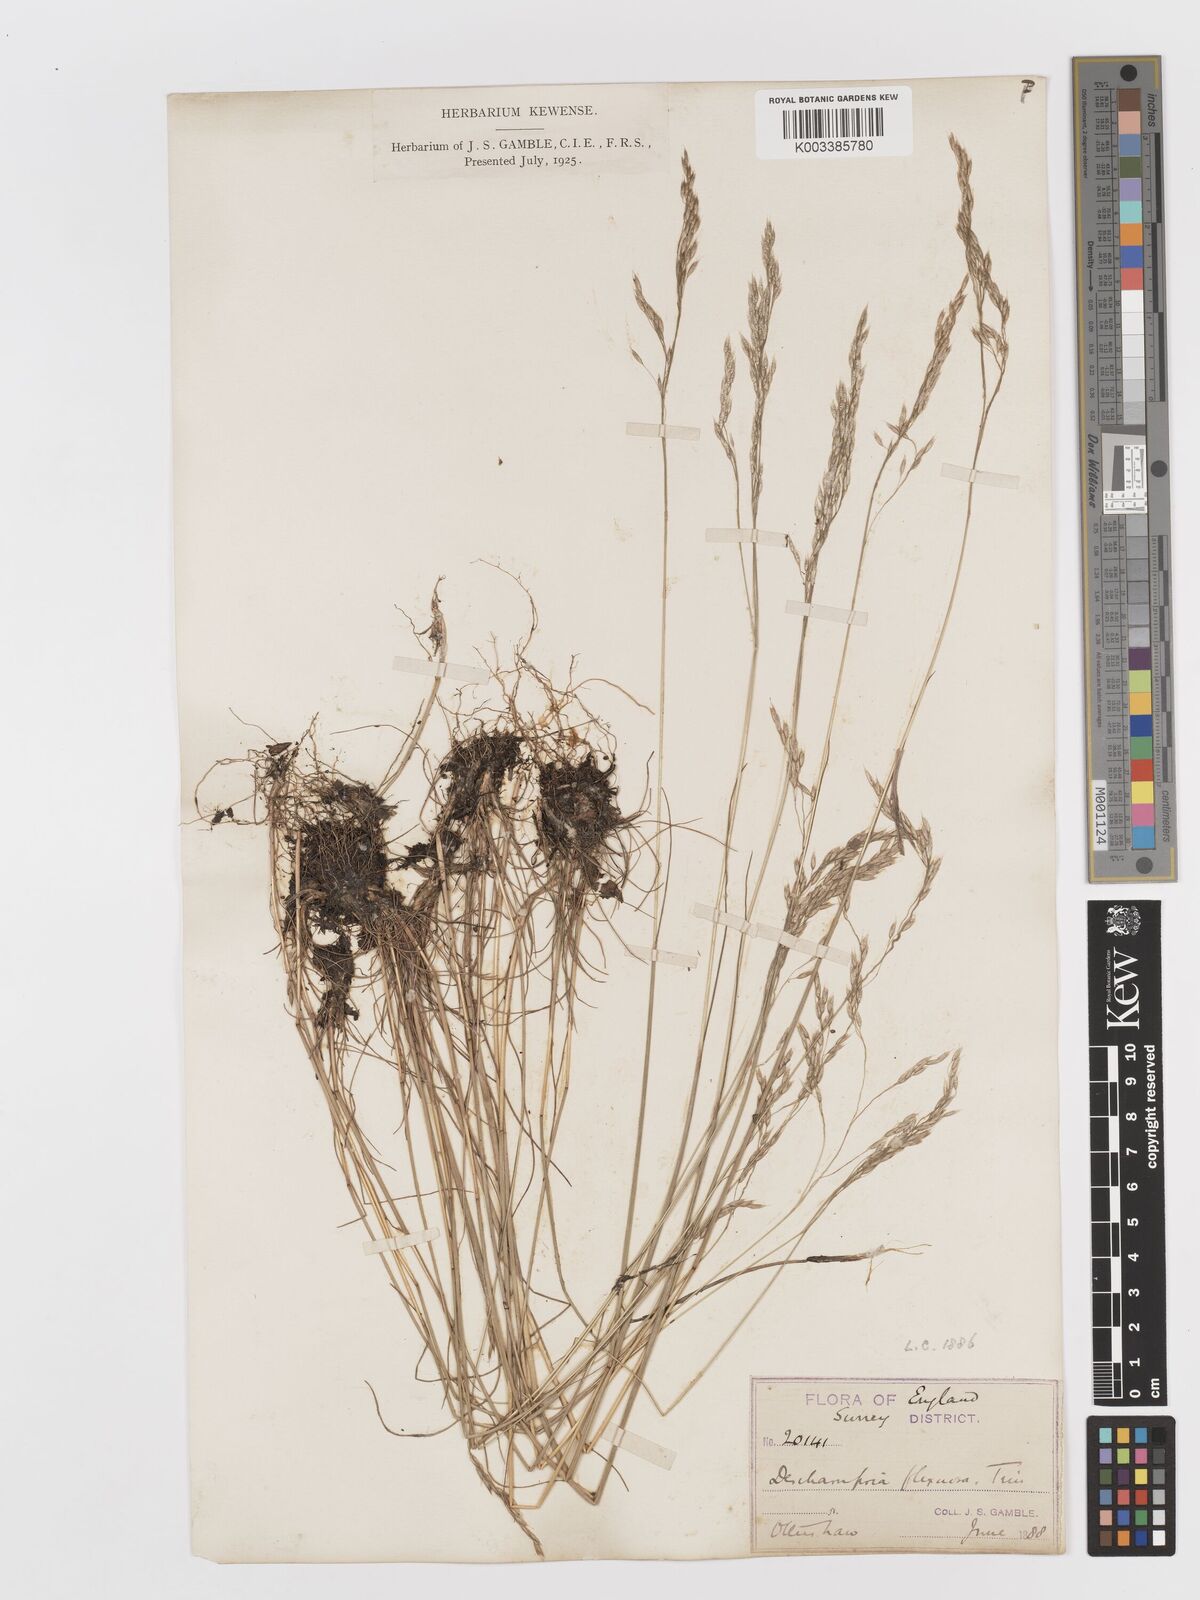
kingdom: Plantae
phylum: Tracheophyta
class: Liliopsida
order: Poales
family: Poaceae
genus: Avenella
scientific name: Avenella flexuosa
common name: Wavy hairgrass
